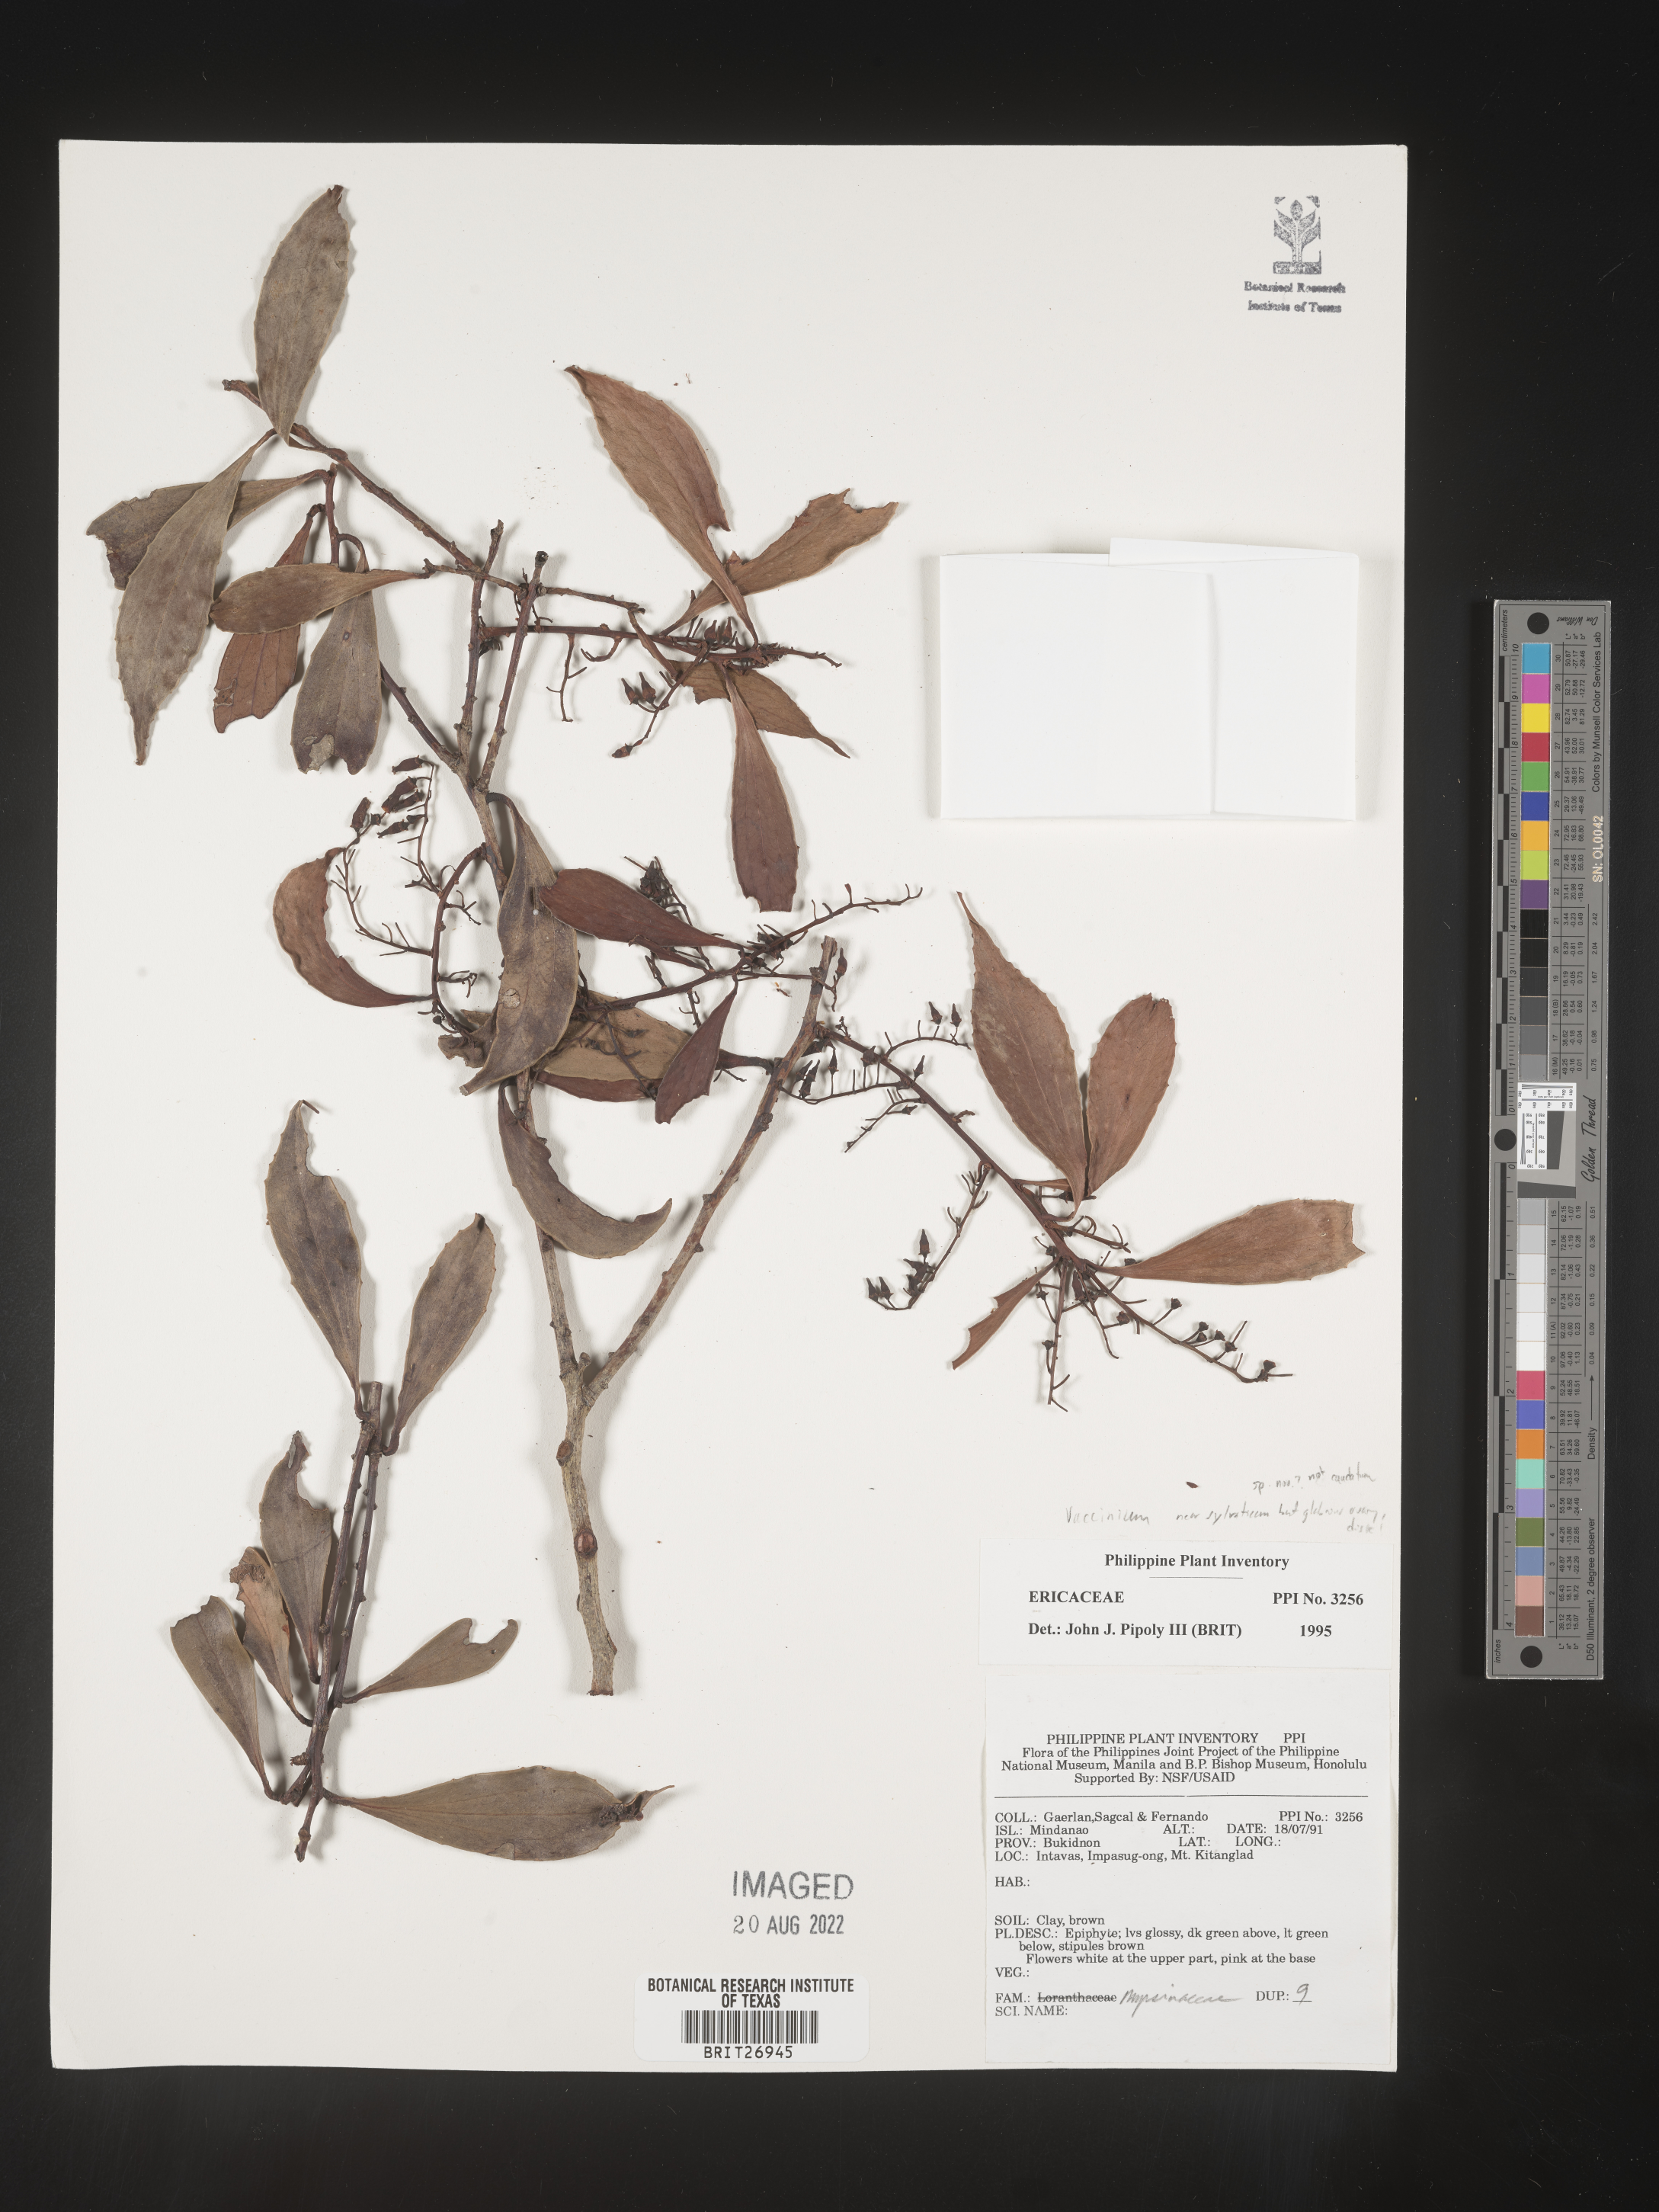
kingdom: Plantae
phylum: Tracheophyta
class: Magnoliopsida
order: Ericales
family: Ericaceae
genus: Vaccinium
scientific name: Vaccinium
